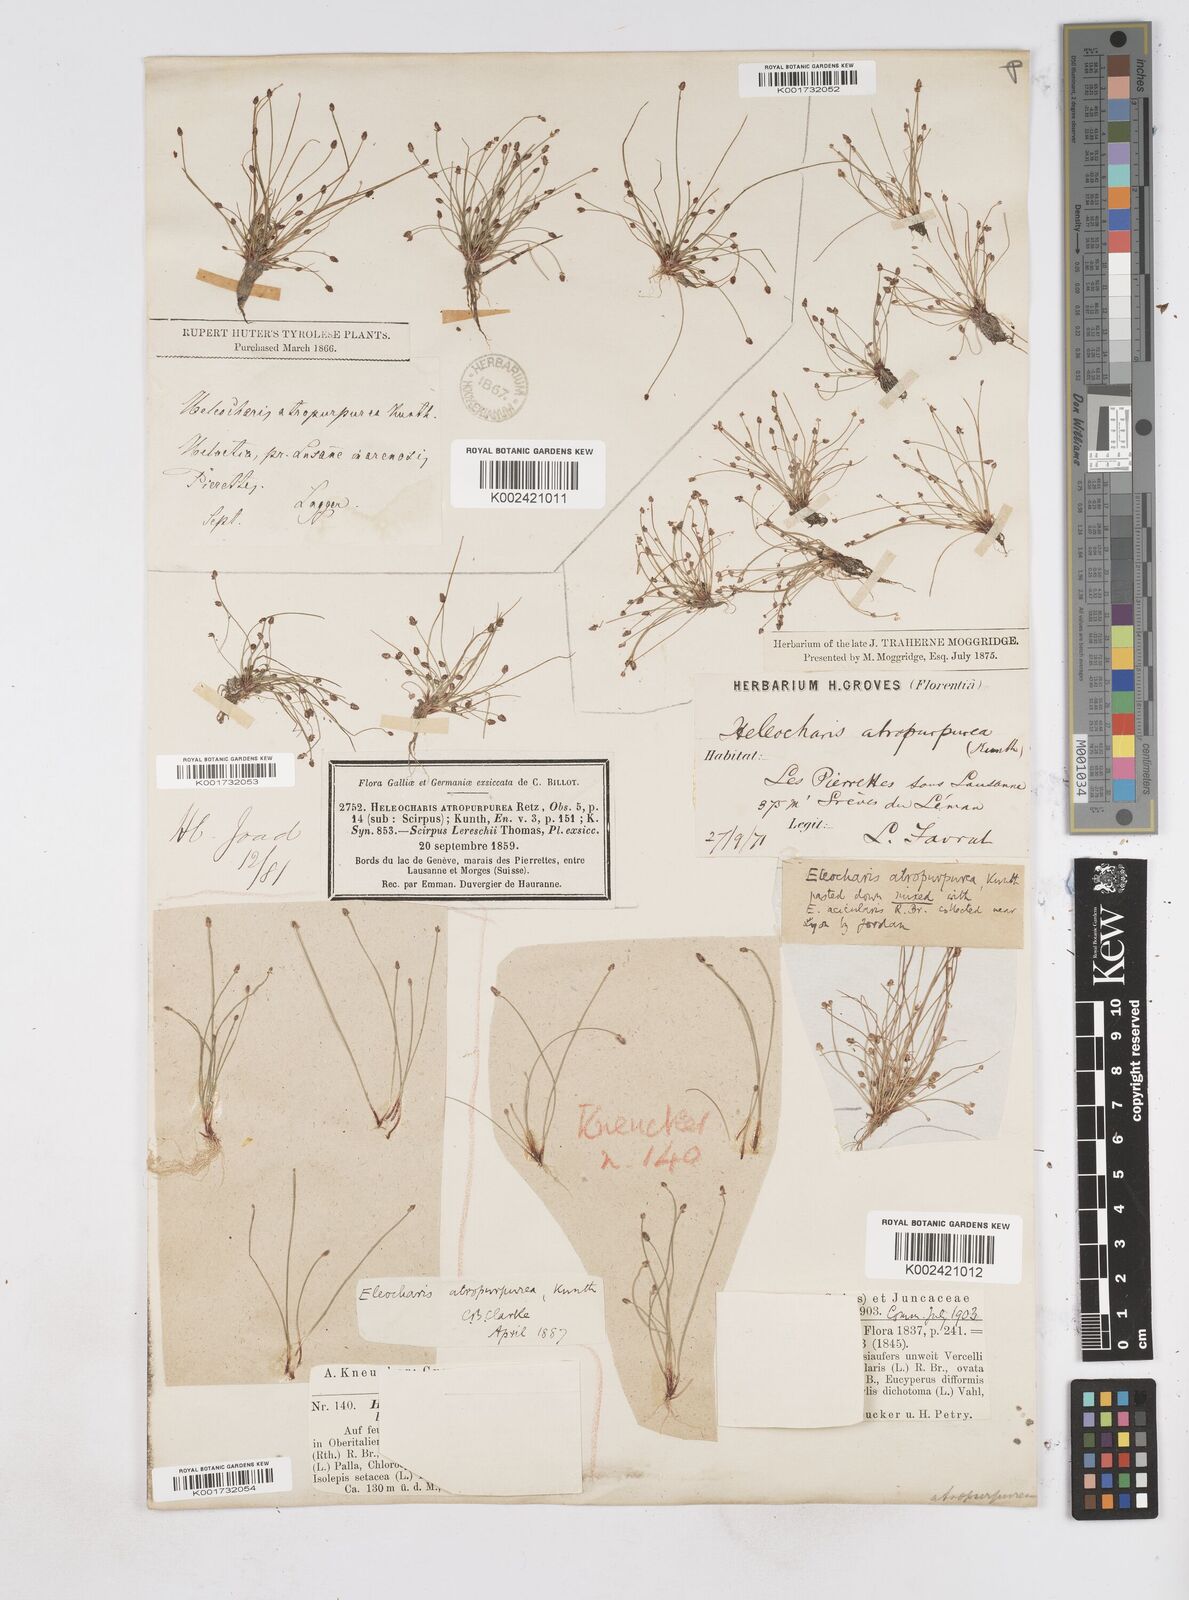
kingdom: Plantae
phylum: Tracheophyta
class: Liliopsida
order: Poales
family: Cyperaceae
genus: Eleocharis
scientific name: Eleocharis atropurpurea
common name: Purple spikerush
